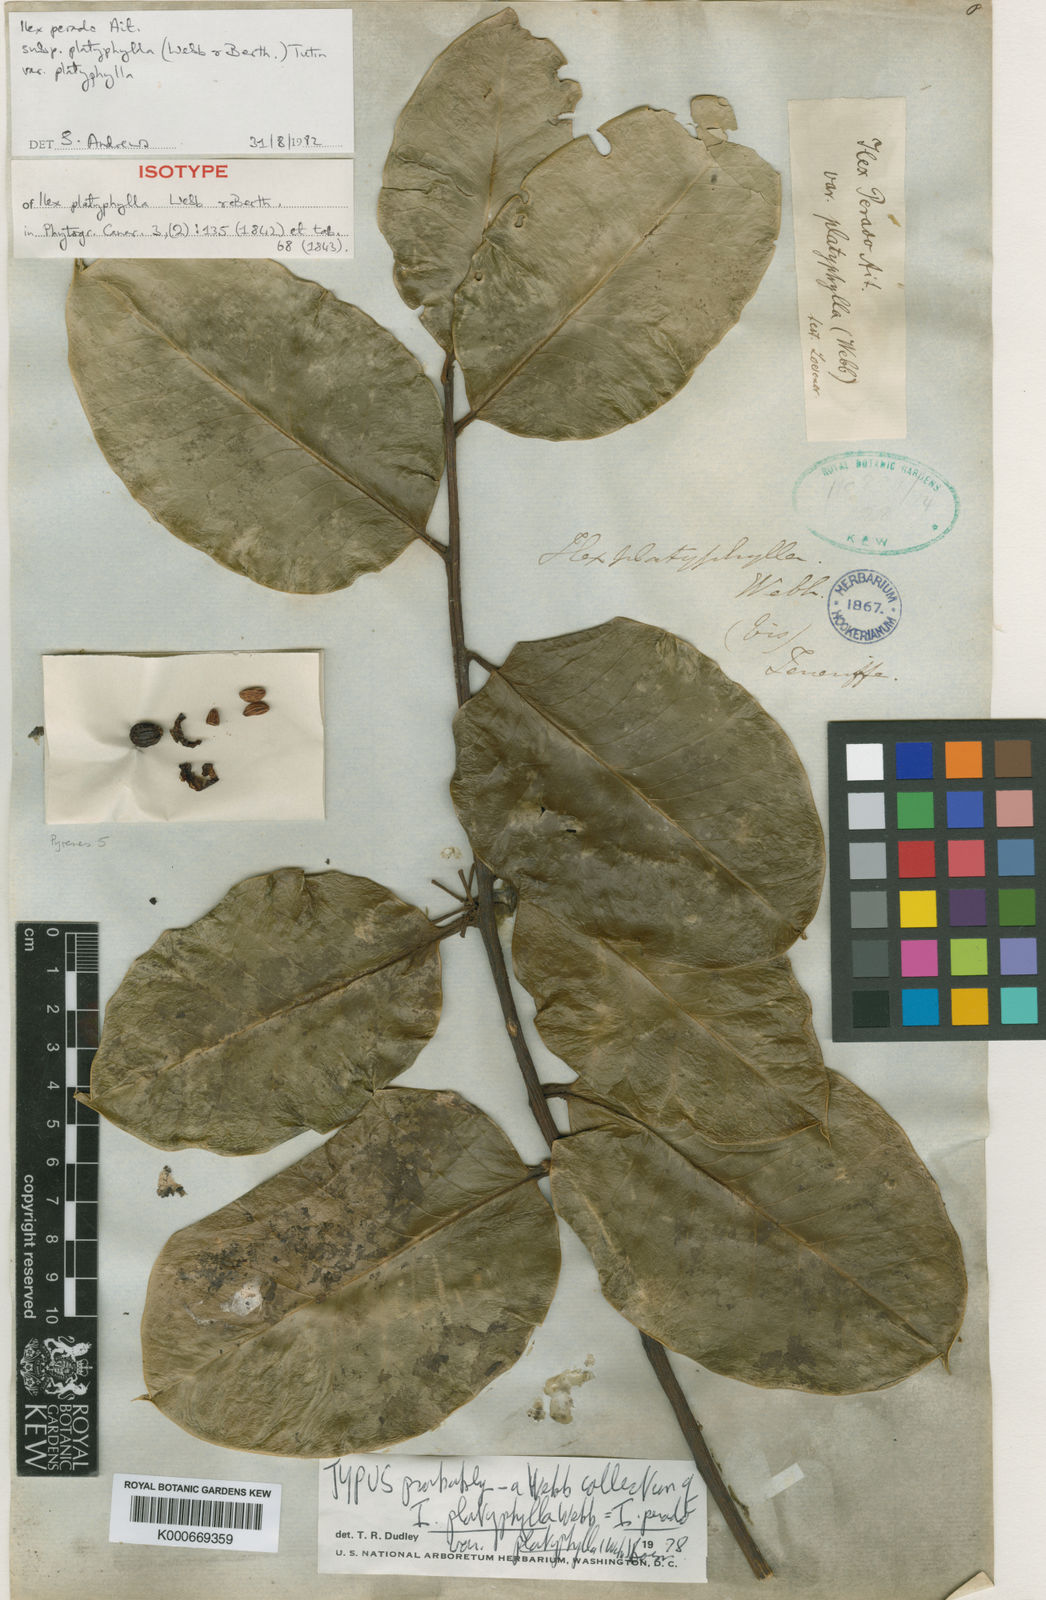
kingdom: Plantae
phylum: Tracheophyta
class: Magnoliopsida
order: Aquifoliales
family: Aquifoliaceae
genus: Ilex
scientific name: Ilex perado
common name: Madeira holly
